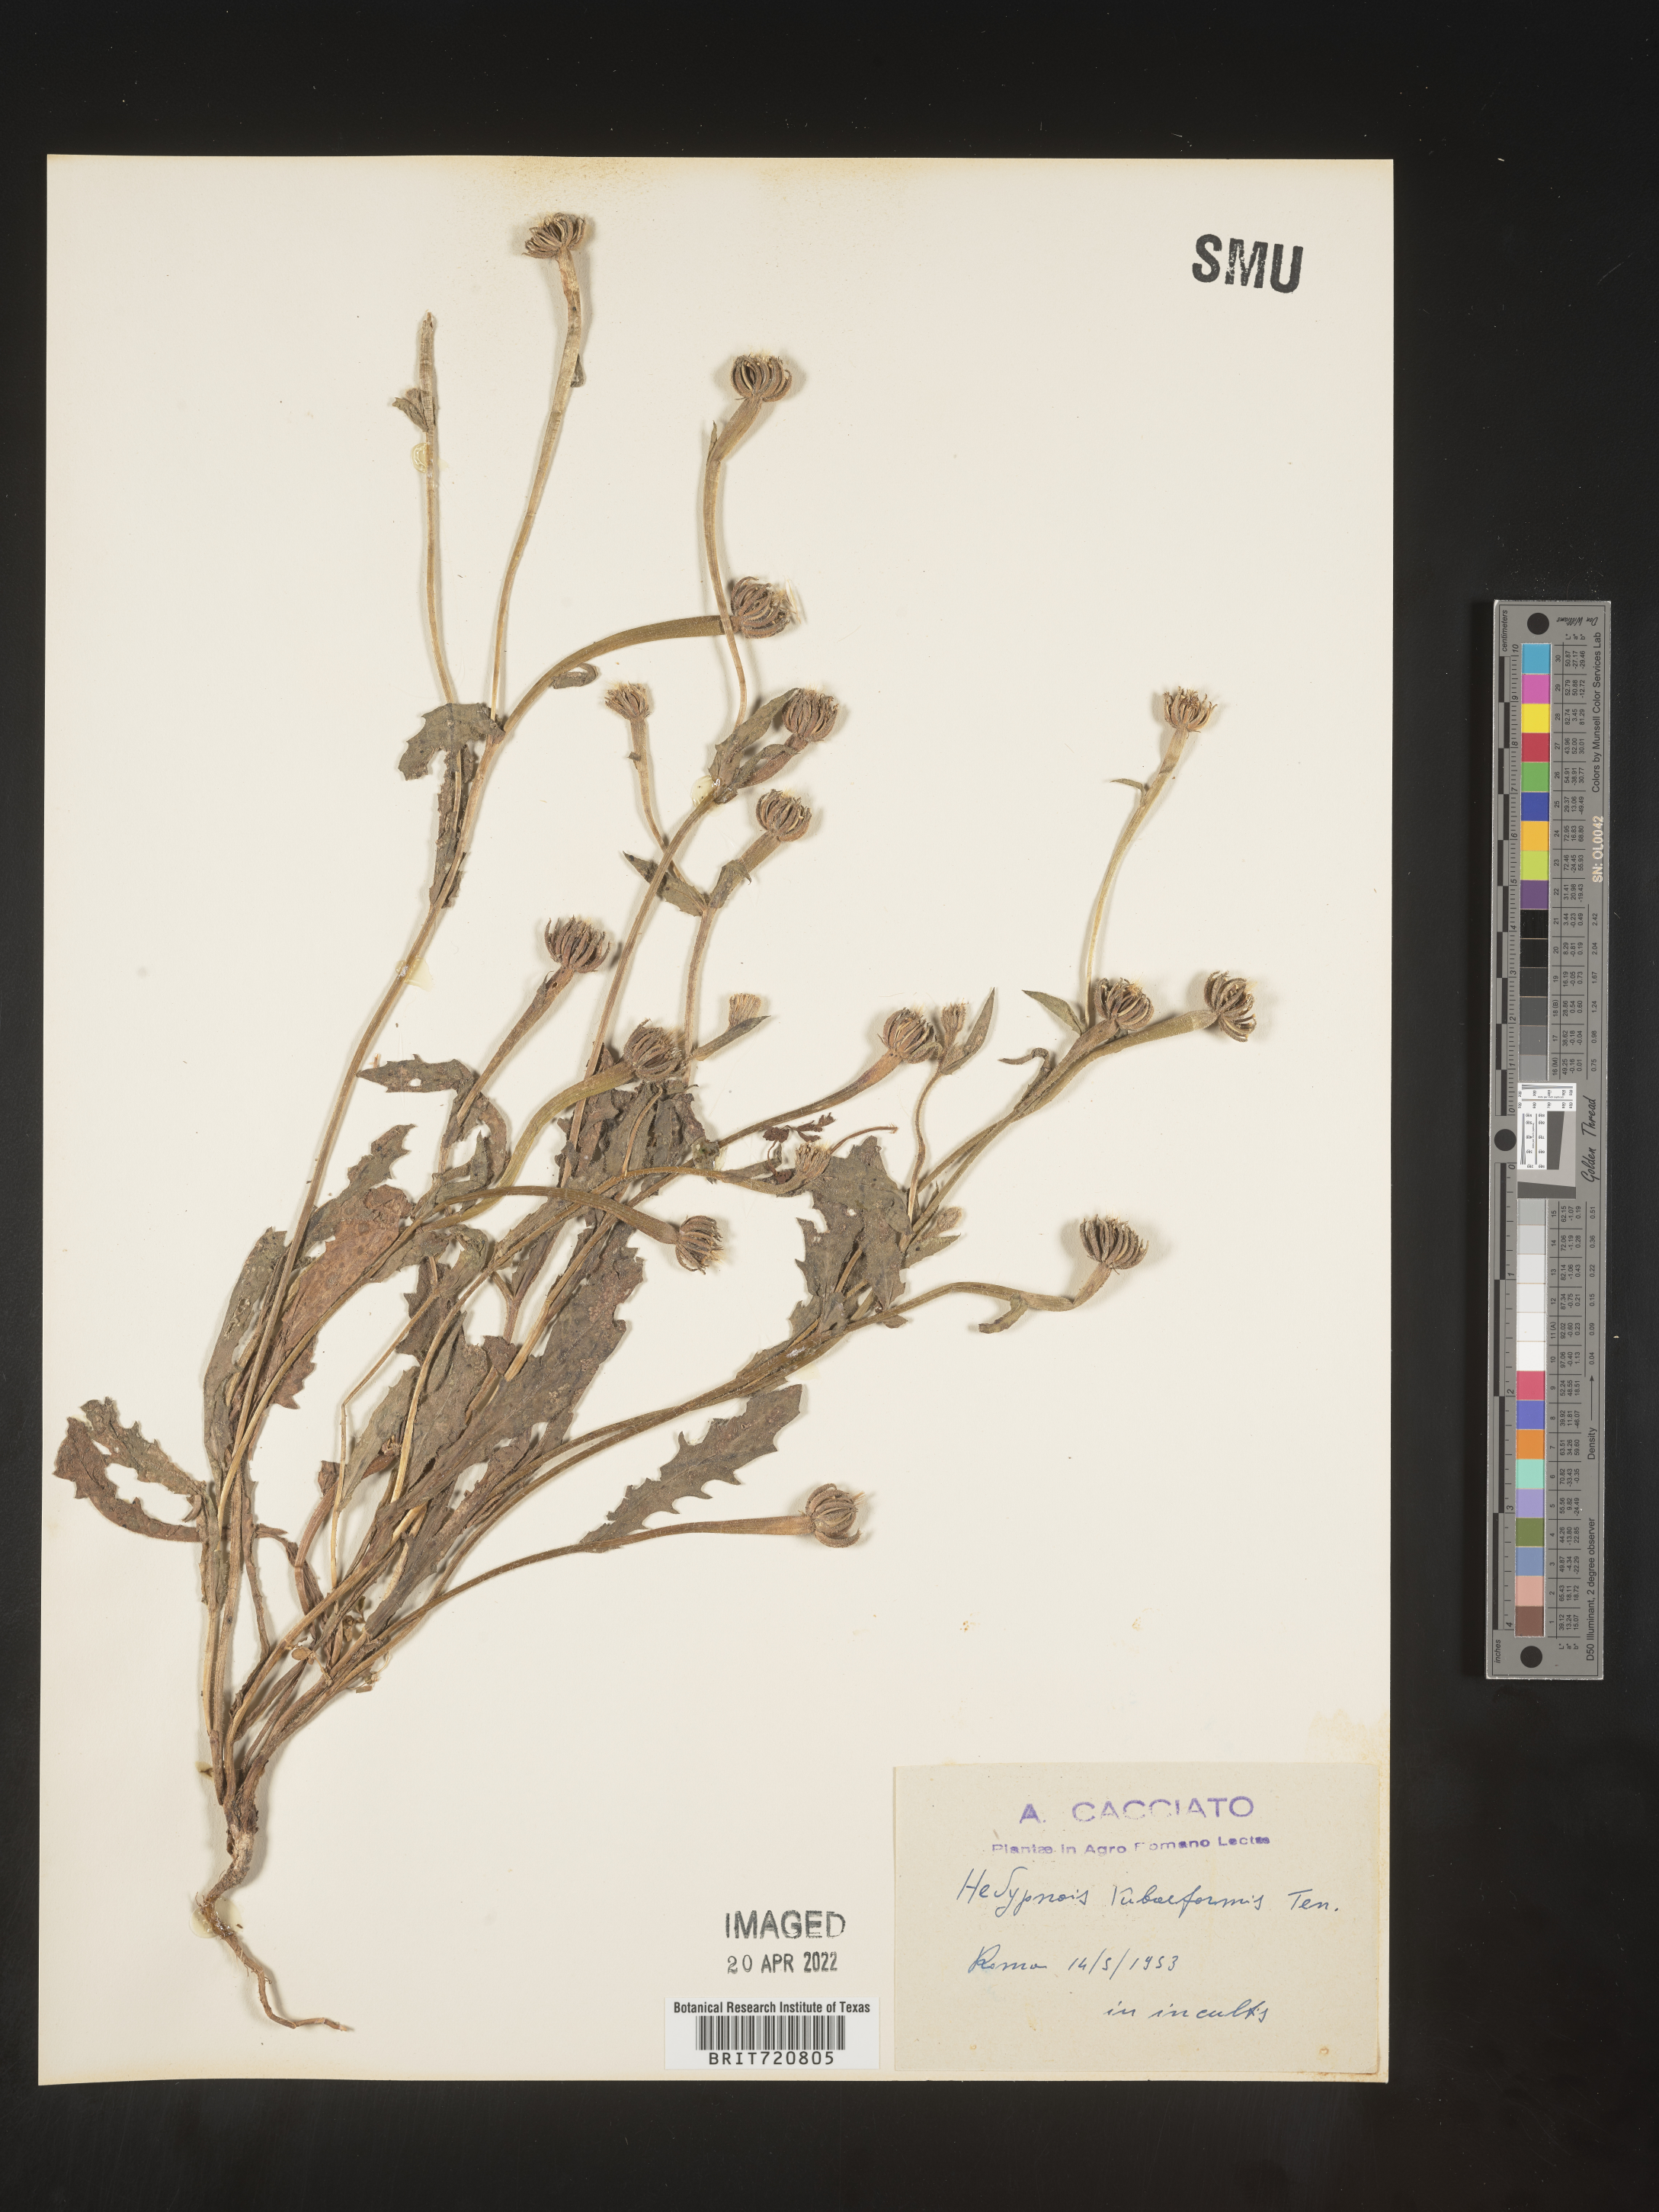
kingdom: Plantae
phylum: Tracheophyta
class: Magnoliopsida
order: Asterales
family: Asteraceae
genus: Hedypnois
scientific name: Hedypnois
